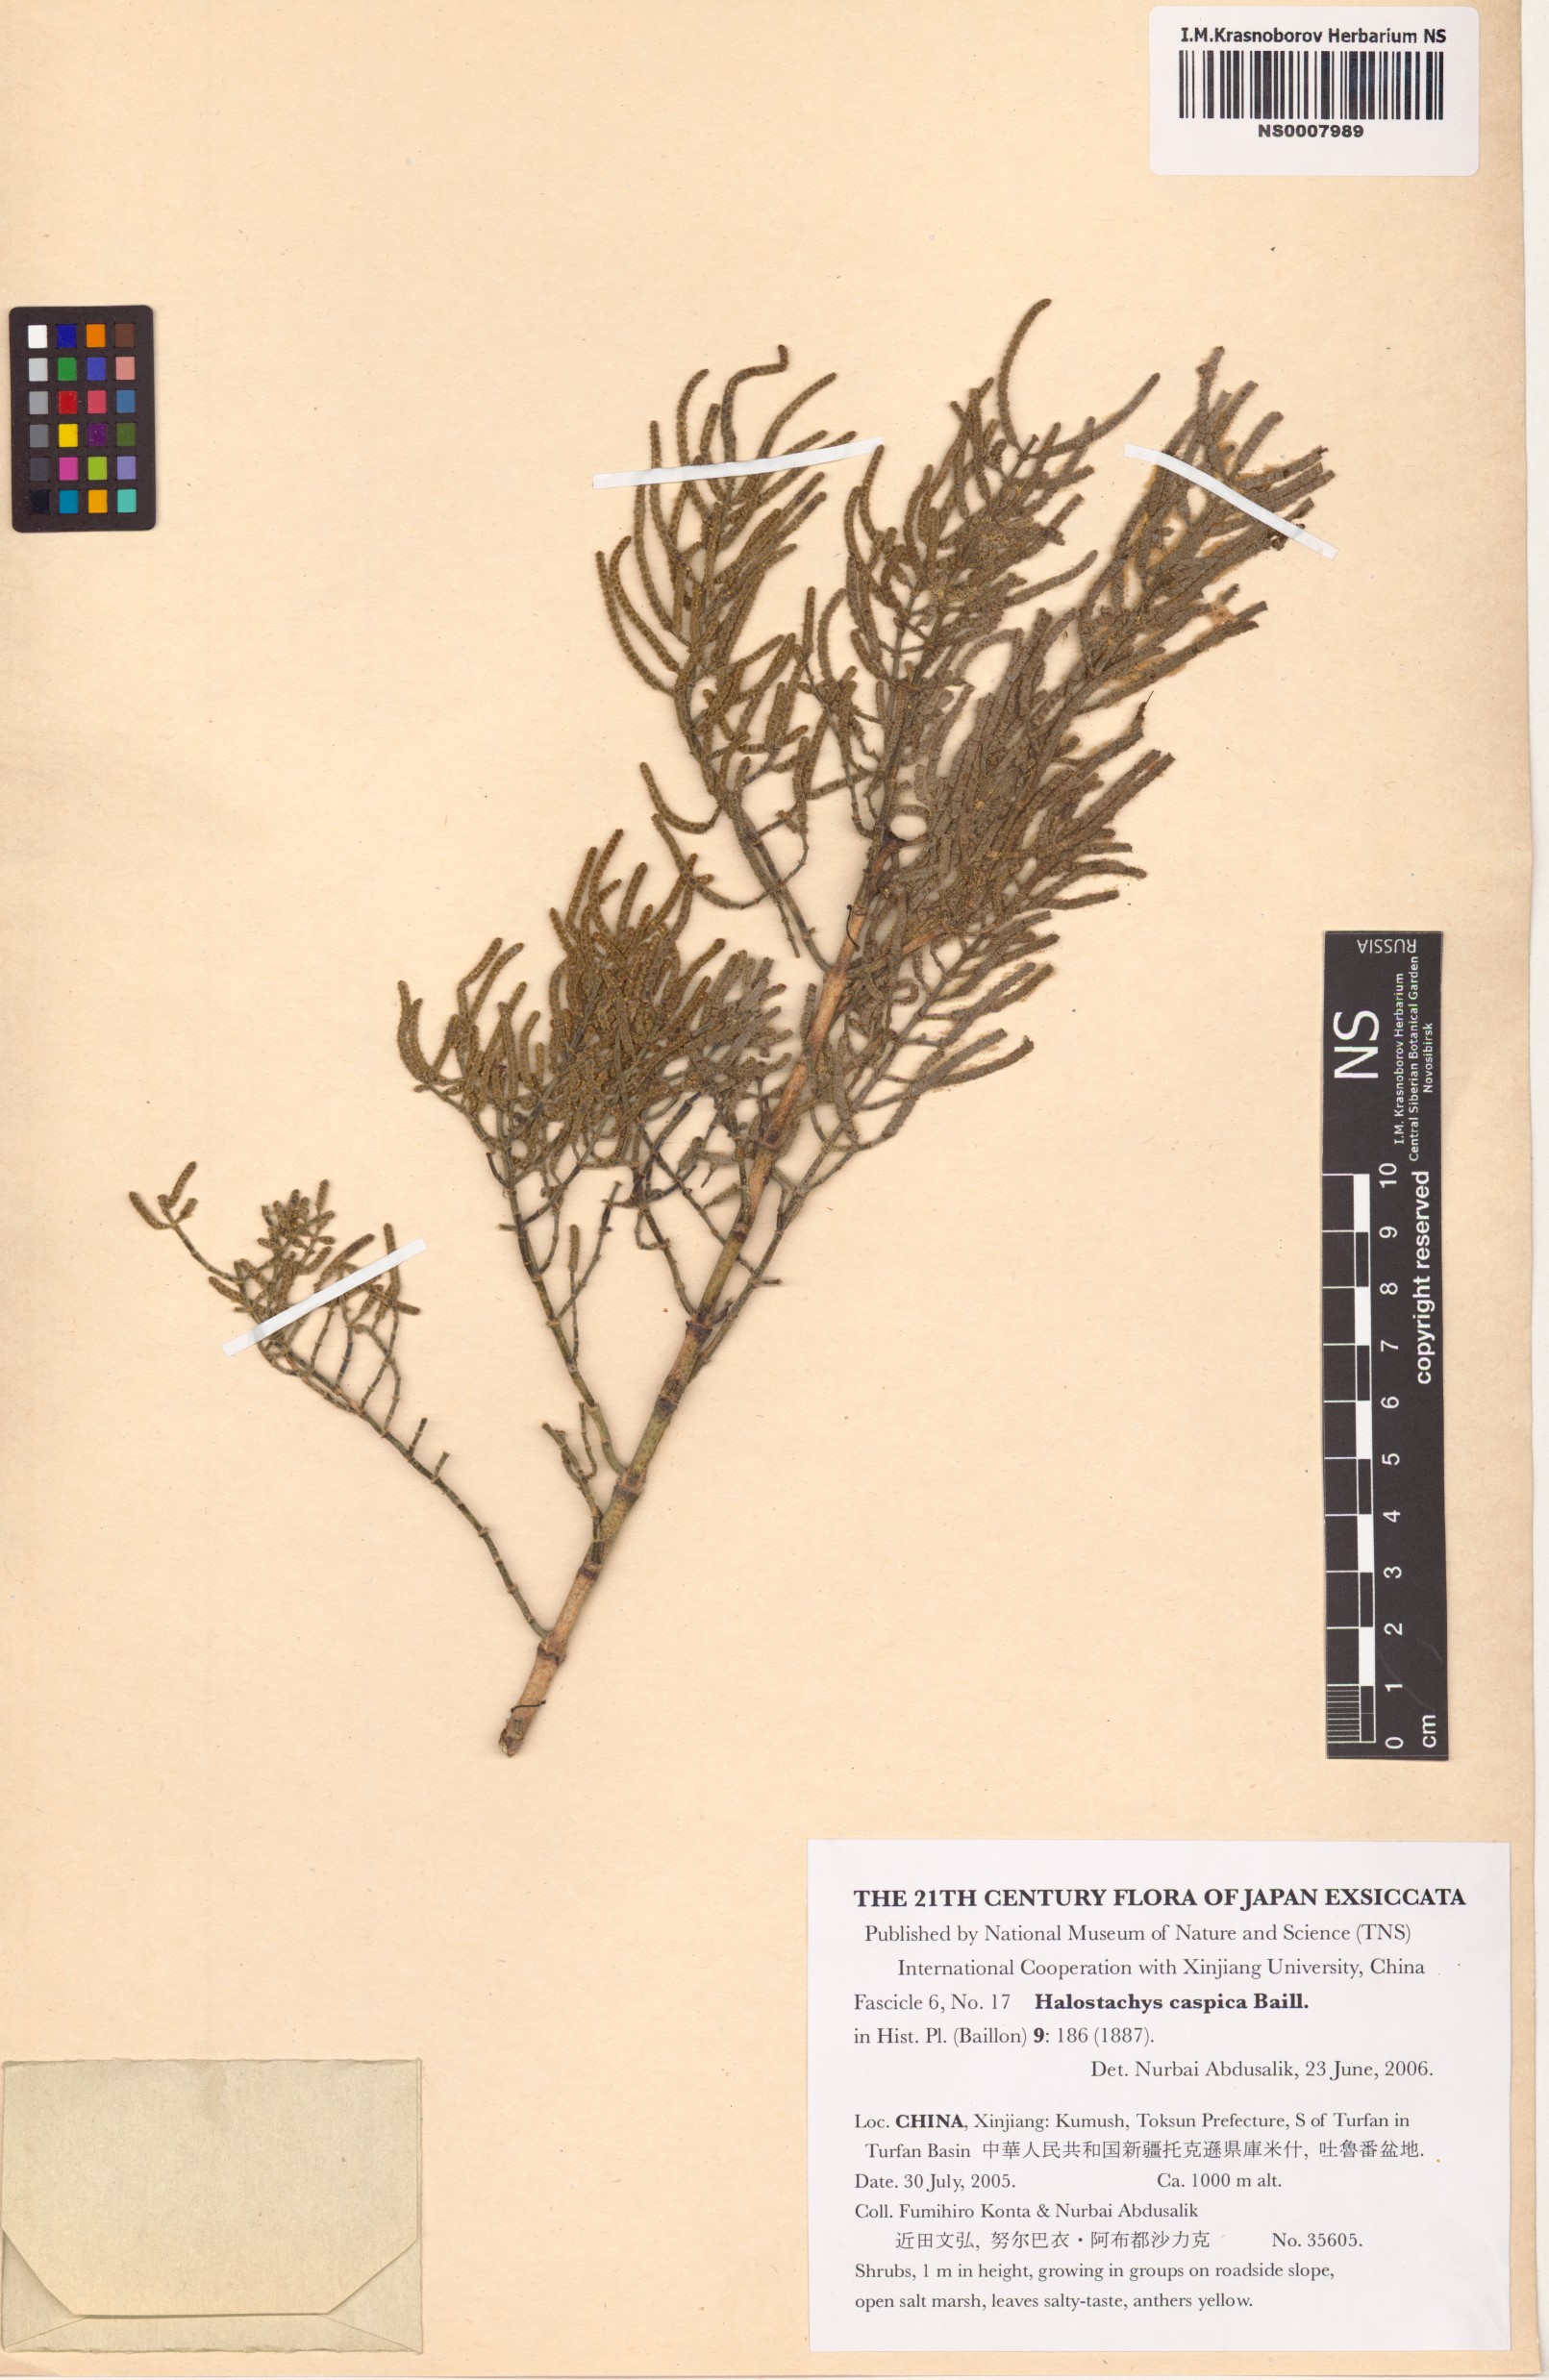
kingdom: Plantae
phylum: Tracheophyta
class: Magnoliopsida
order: Caryophyllales
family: Amaranthaceae
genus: Halostachys
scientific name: Halostachys caspica
